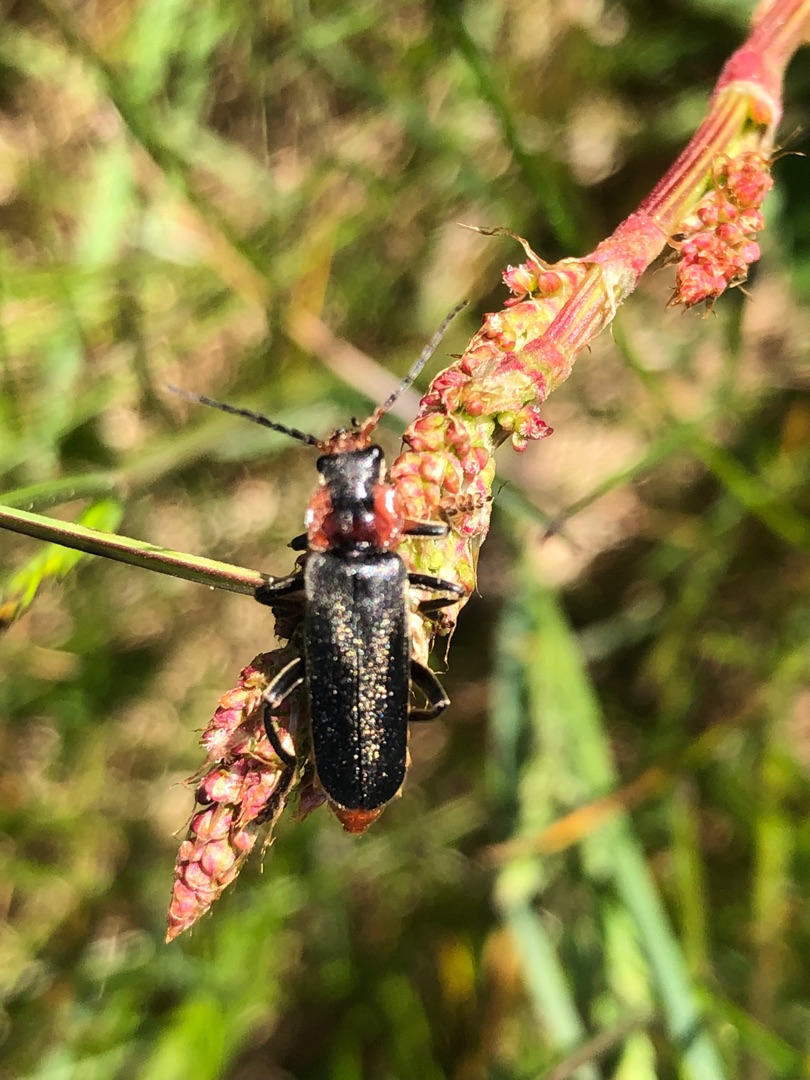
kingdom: Animalia
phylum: Arthropoda
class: Insecta
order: Coleoptera
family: Cantharidae
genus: Cantharis
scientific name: Cantharis fusca
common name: Stor blødvinge
